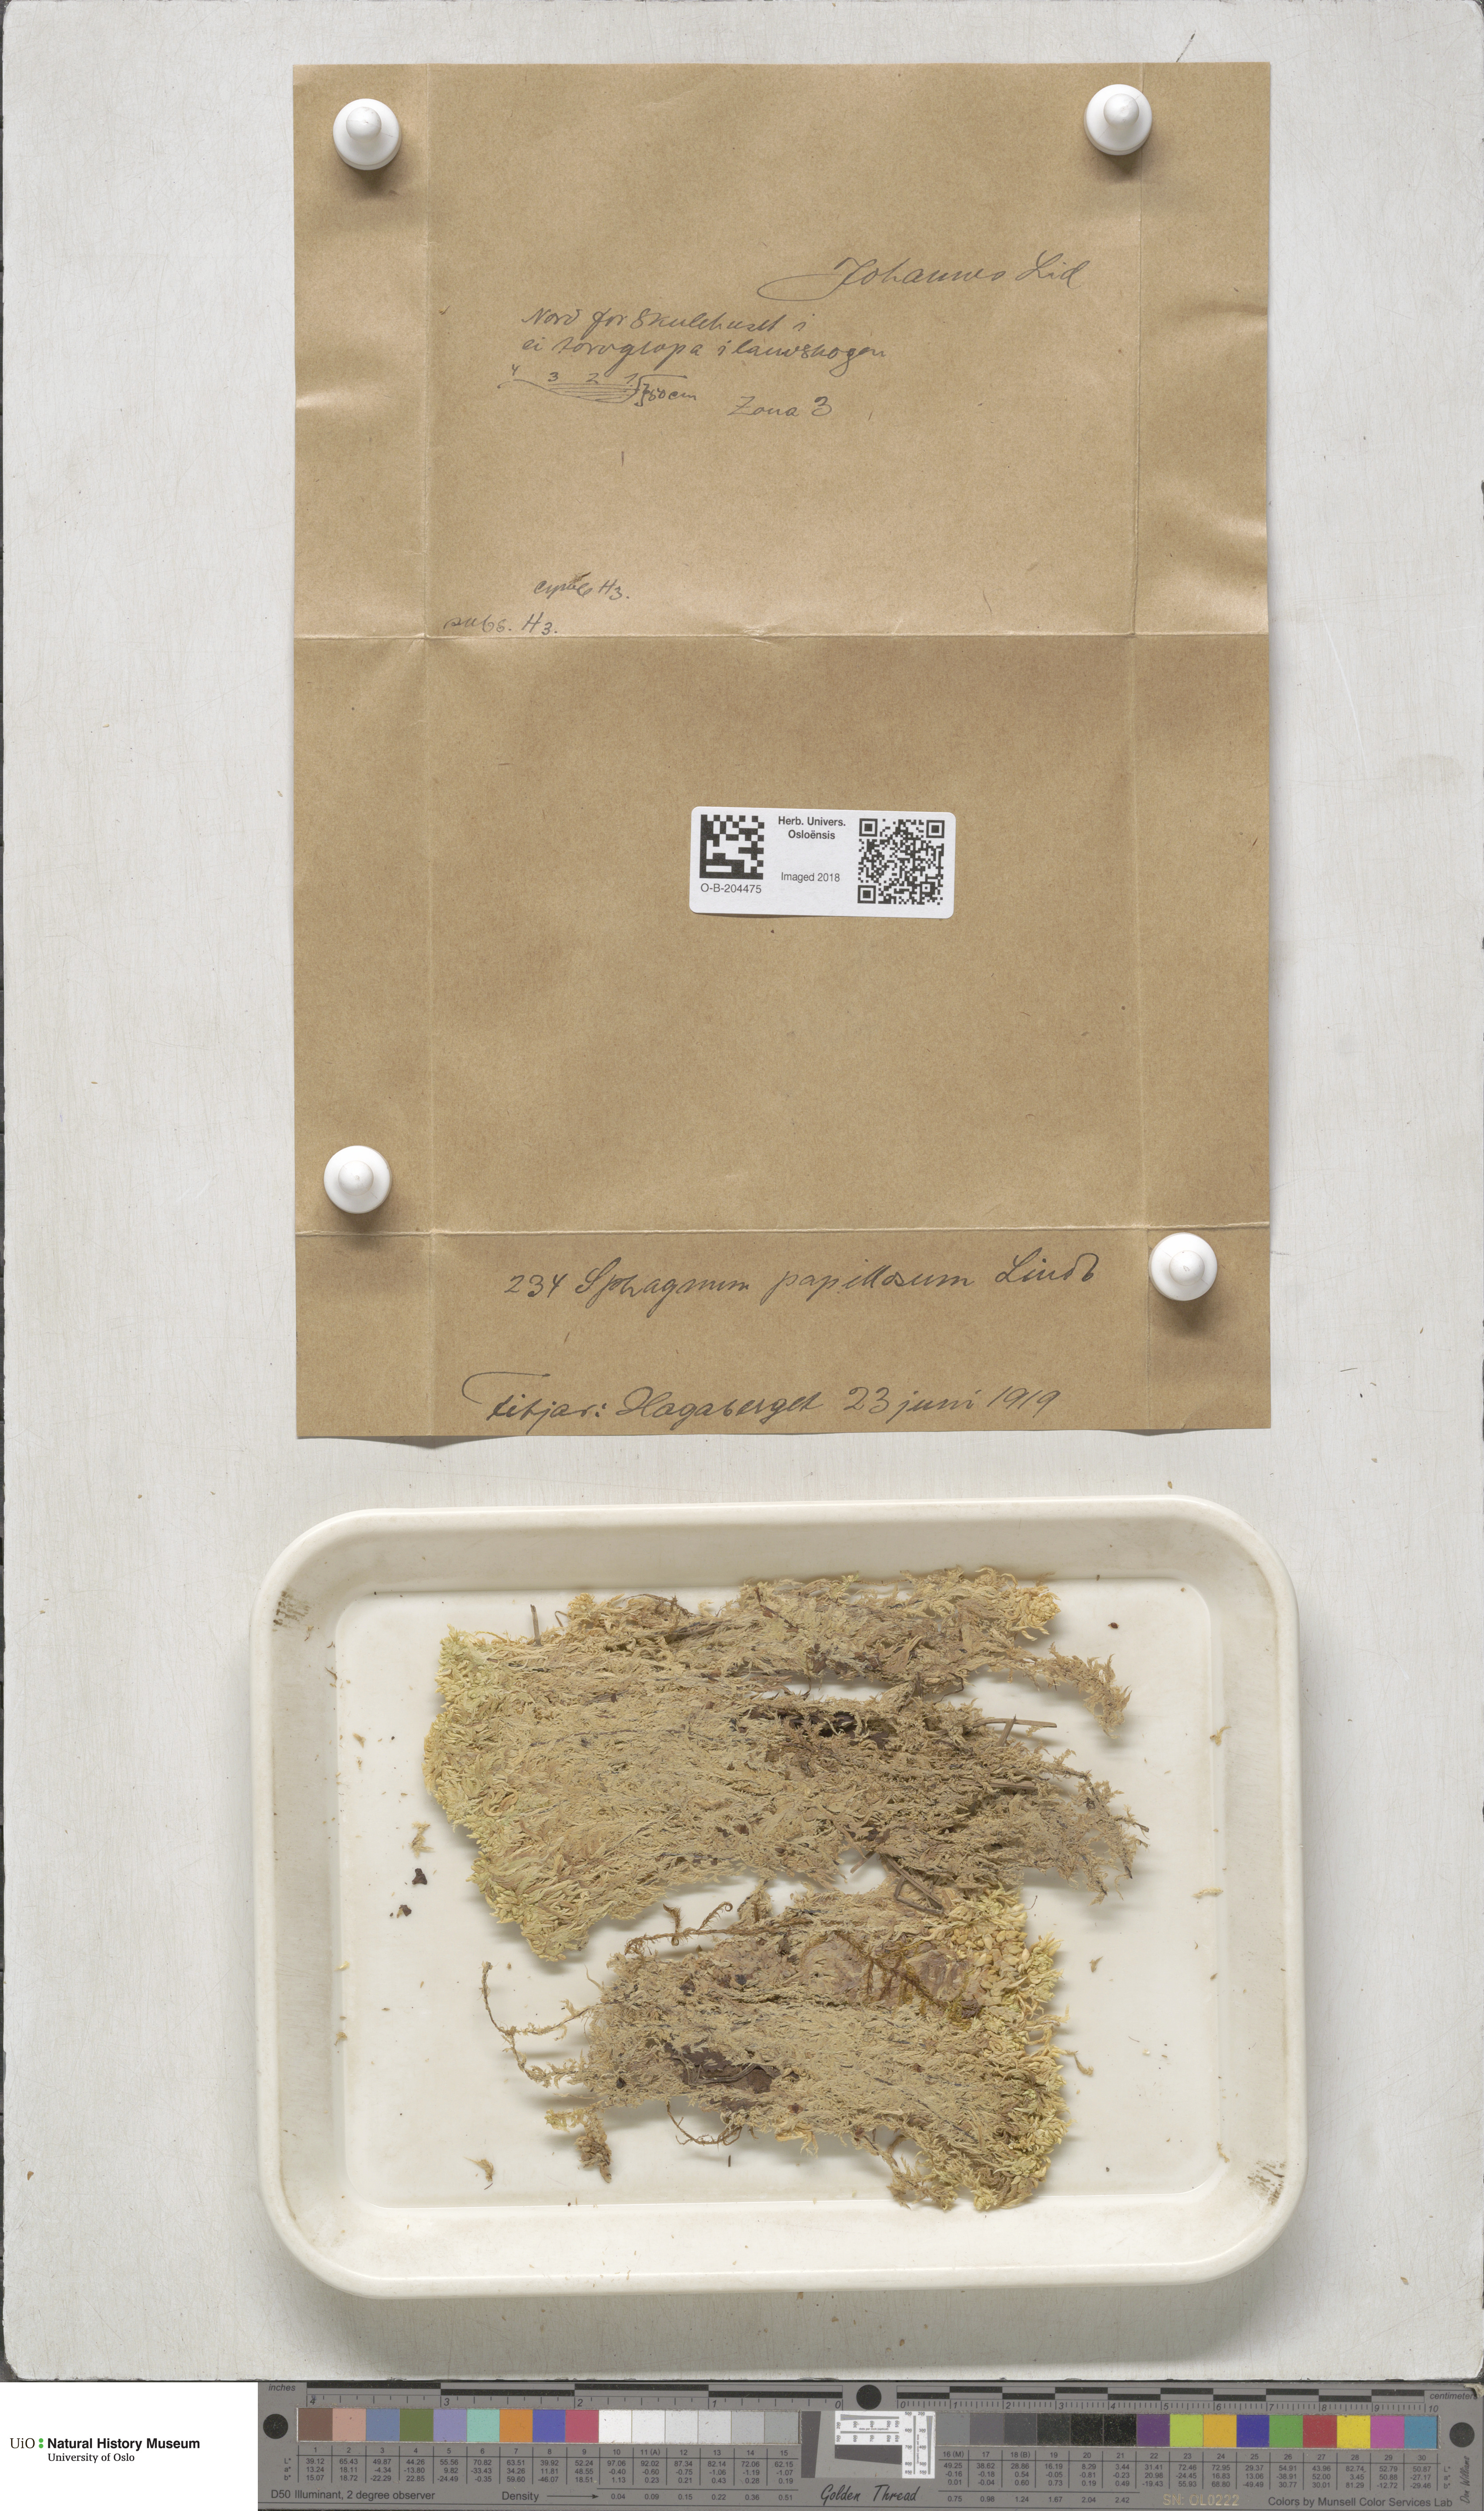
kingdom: Plantae
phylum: Bryophyta
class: Sphagnopsida
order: Sphagnales
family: Sphagnaceae
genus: Sphagnum
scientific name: Sphagnum papillosum
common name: Papillose peat moss
